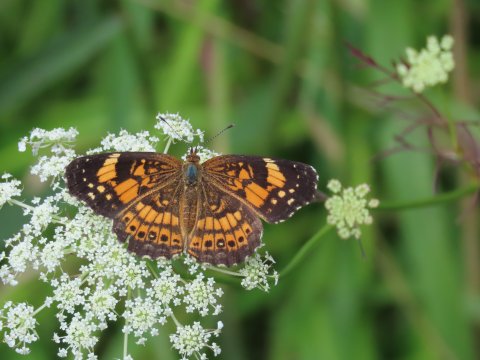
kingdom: Animalia
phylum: Arthropoda
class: Insecta
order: Lepidoptera
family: Nymphalidae
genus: Chlosyne
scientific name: Chlosyne nycteis
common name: Silvery Checkerspot
